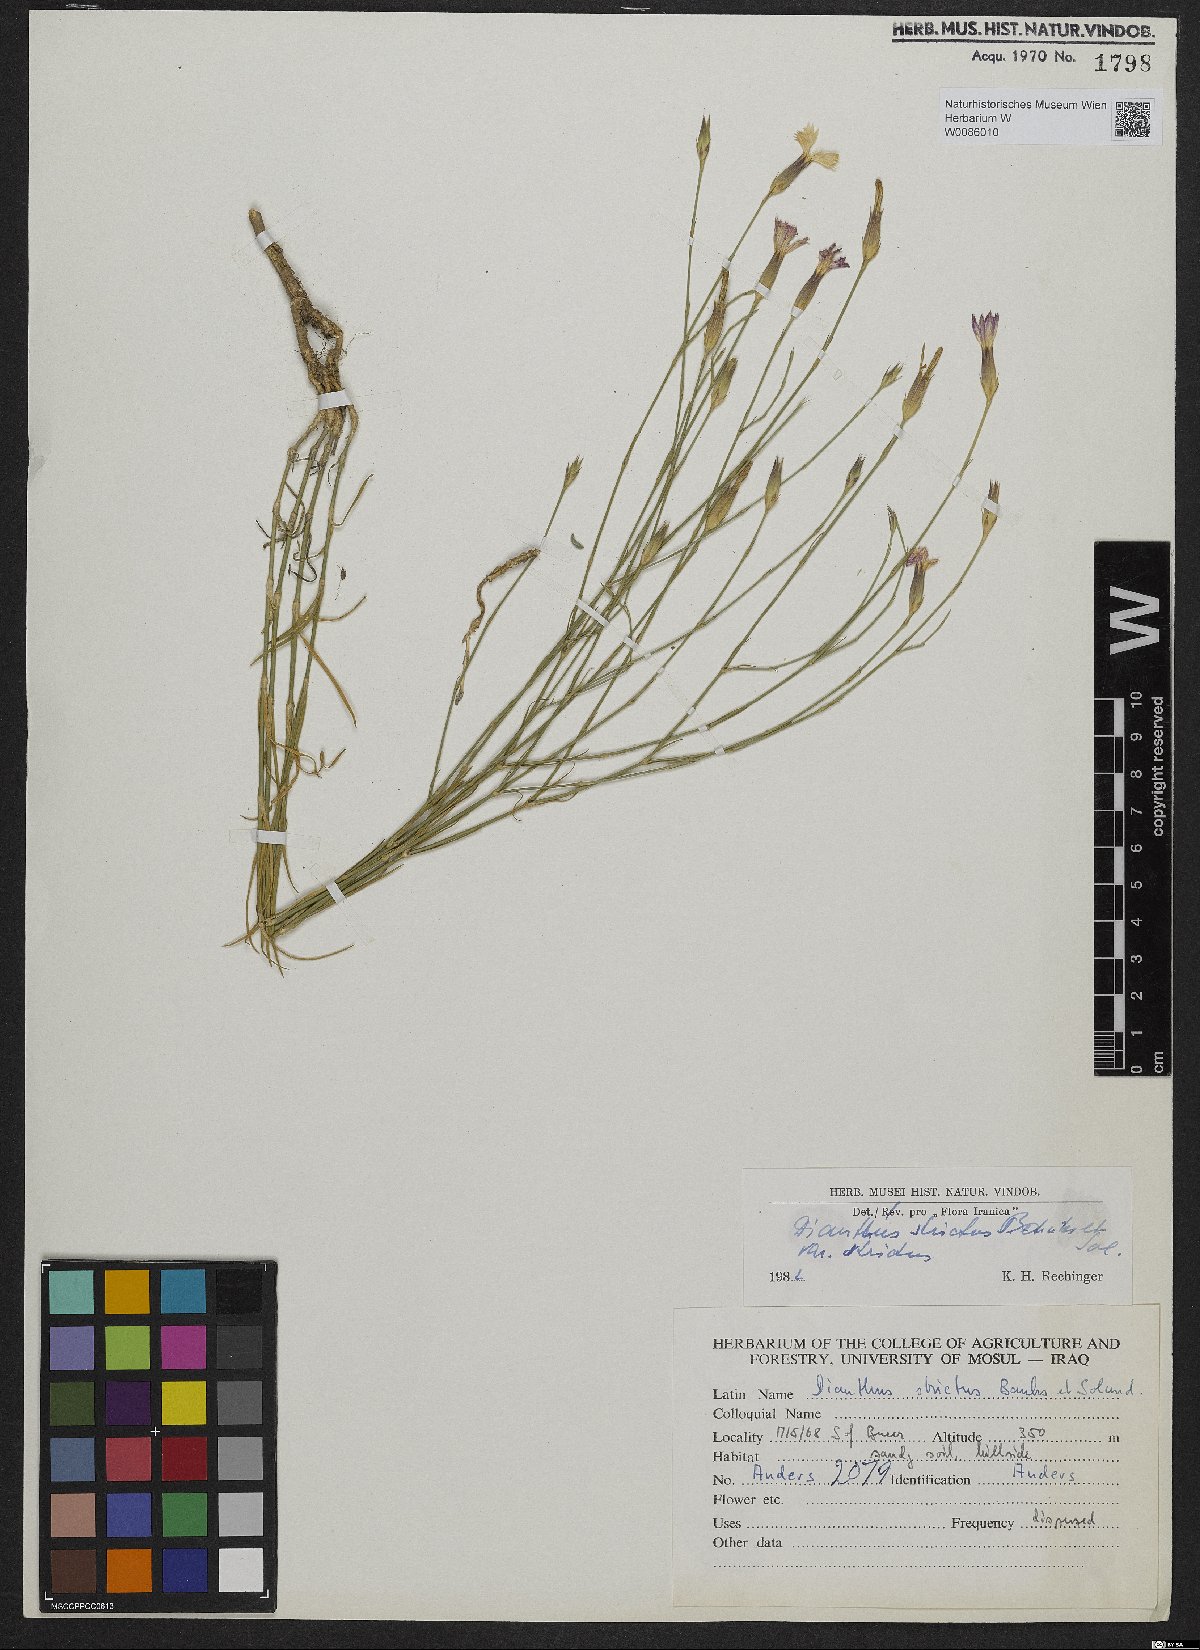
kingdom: Plantae
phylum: Tracheophyta
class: Magnoliopsida
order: Caryophyllales
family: Caryophyllaceae
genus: Dianthus
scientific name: Dianthus strictus
